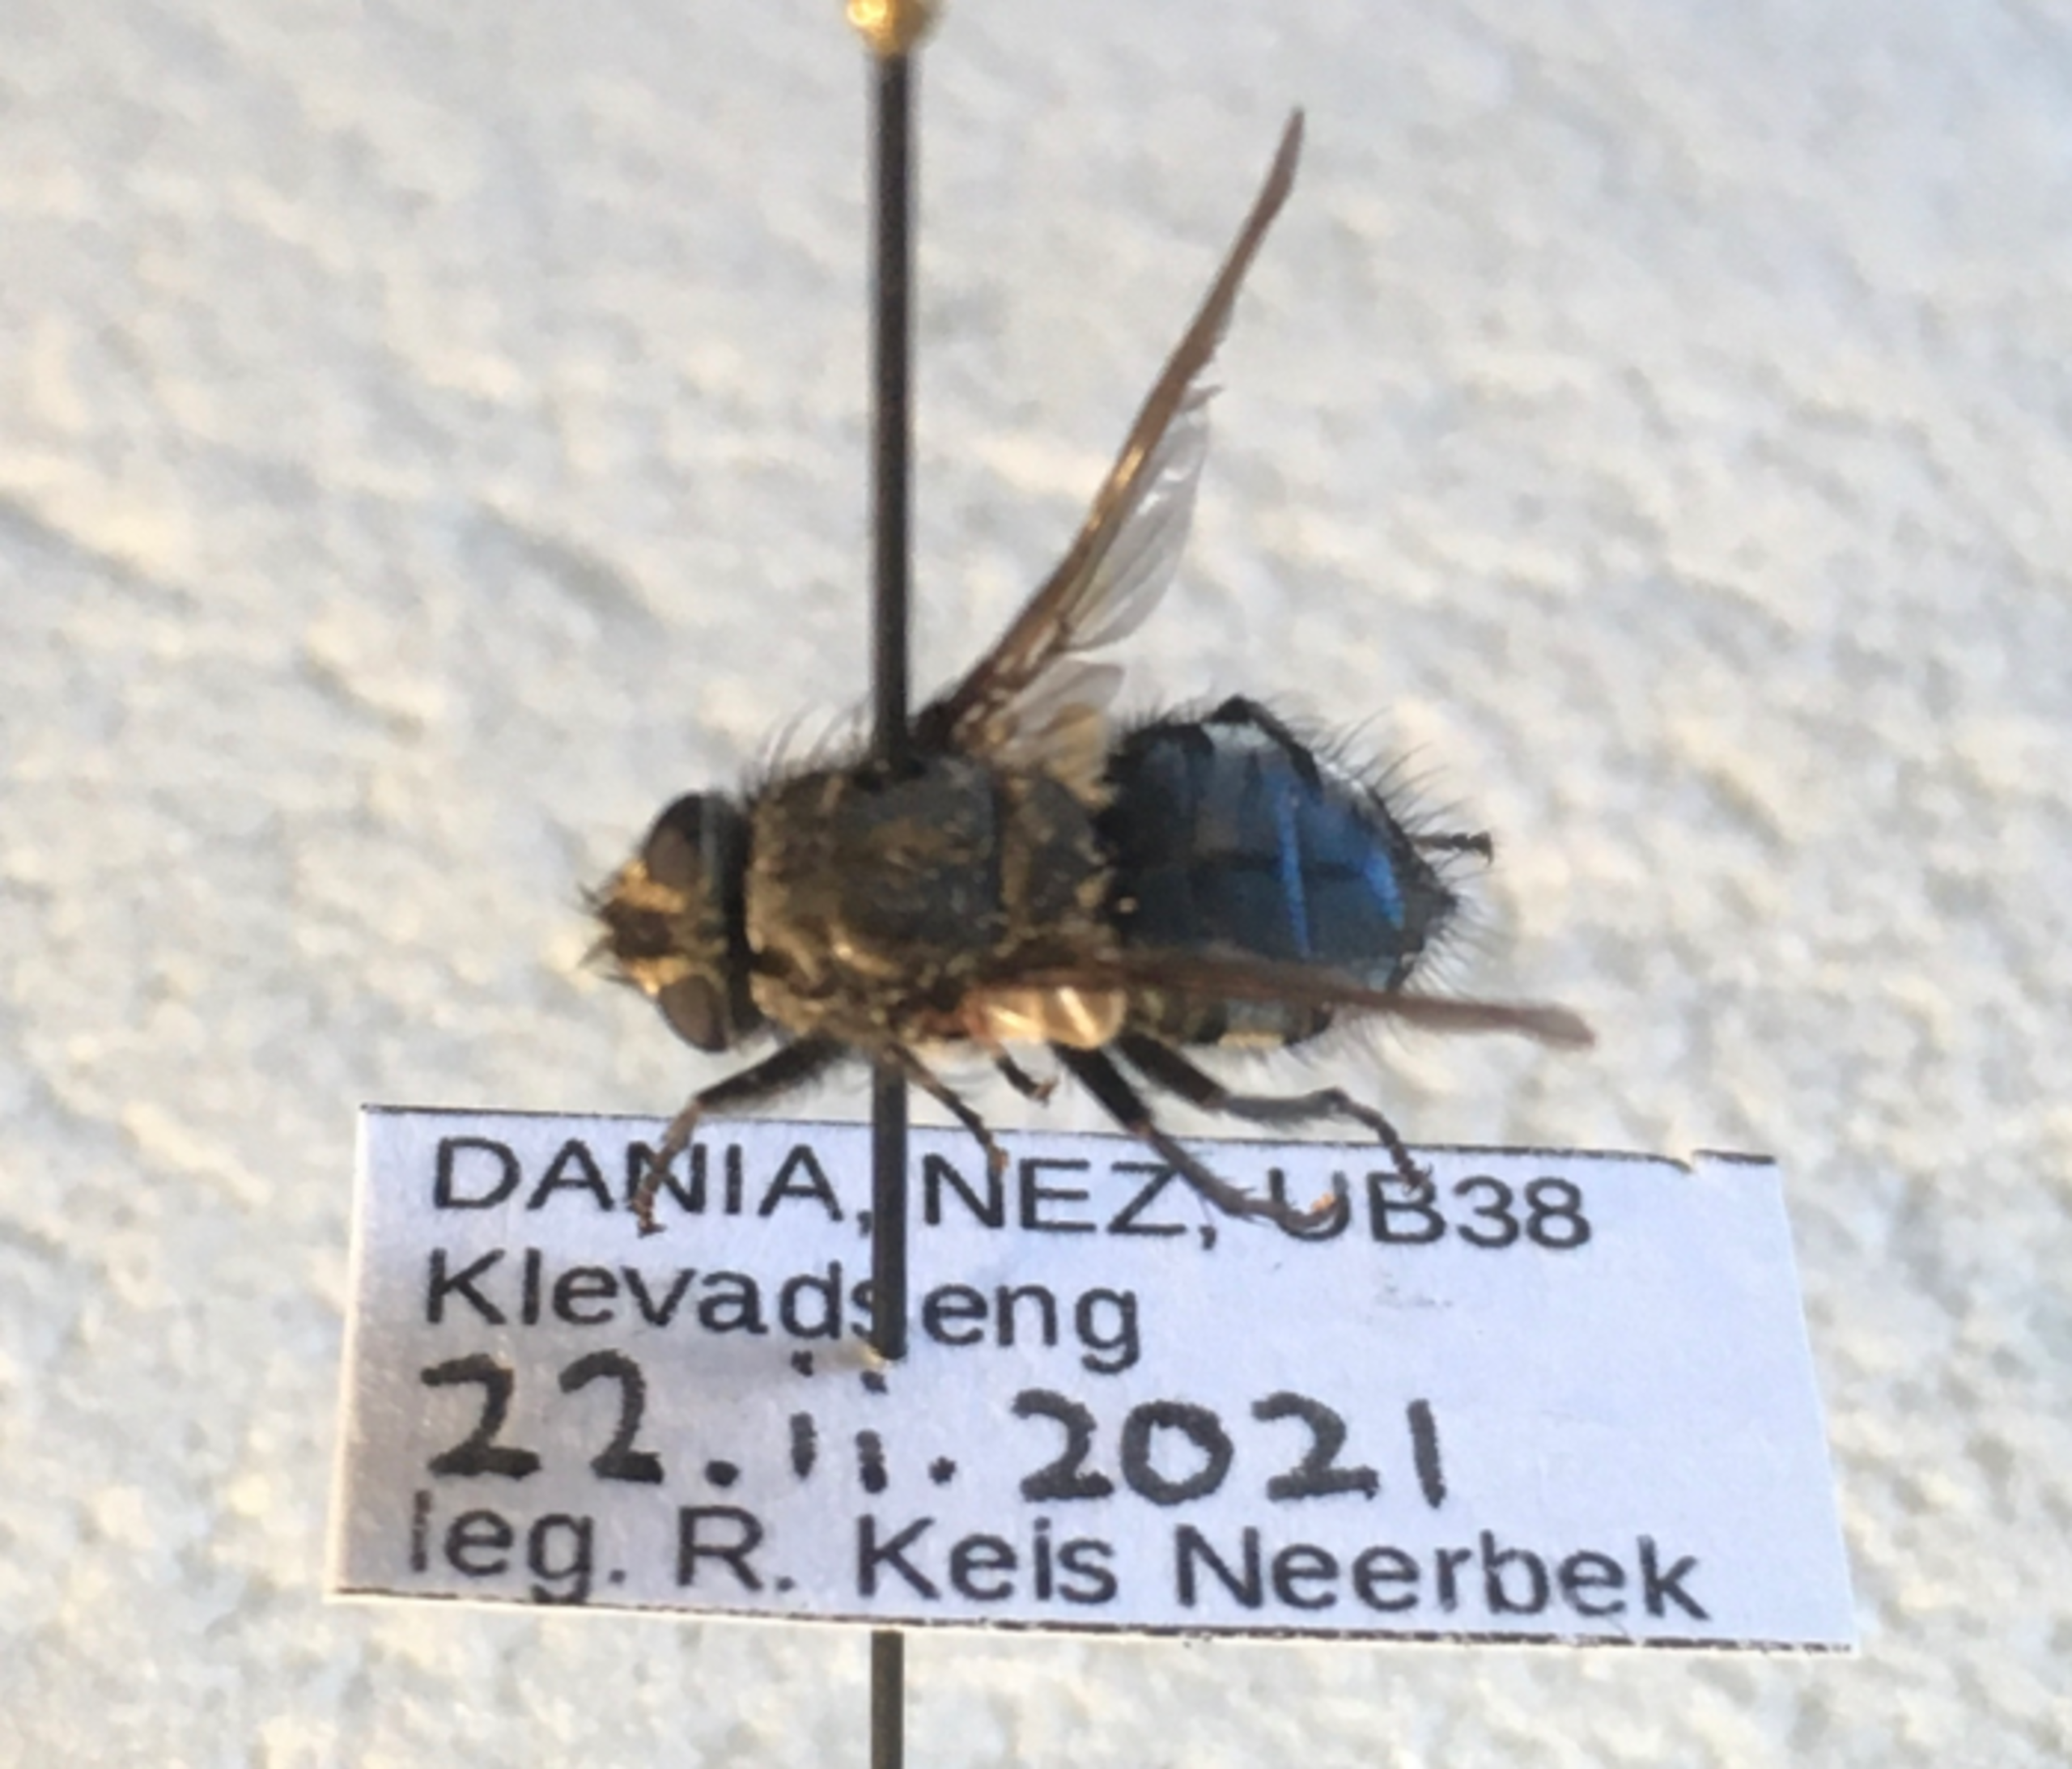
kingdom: Animalia
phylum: Arthropoda
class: Insecta
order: Diptera
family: Polleniidae
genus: Pollenia
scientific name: Pollenia vagabunda
